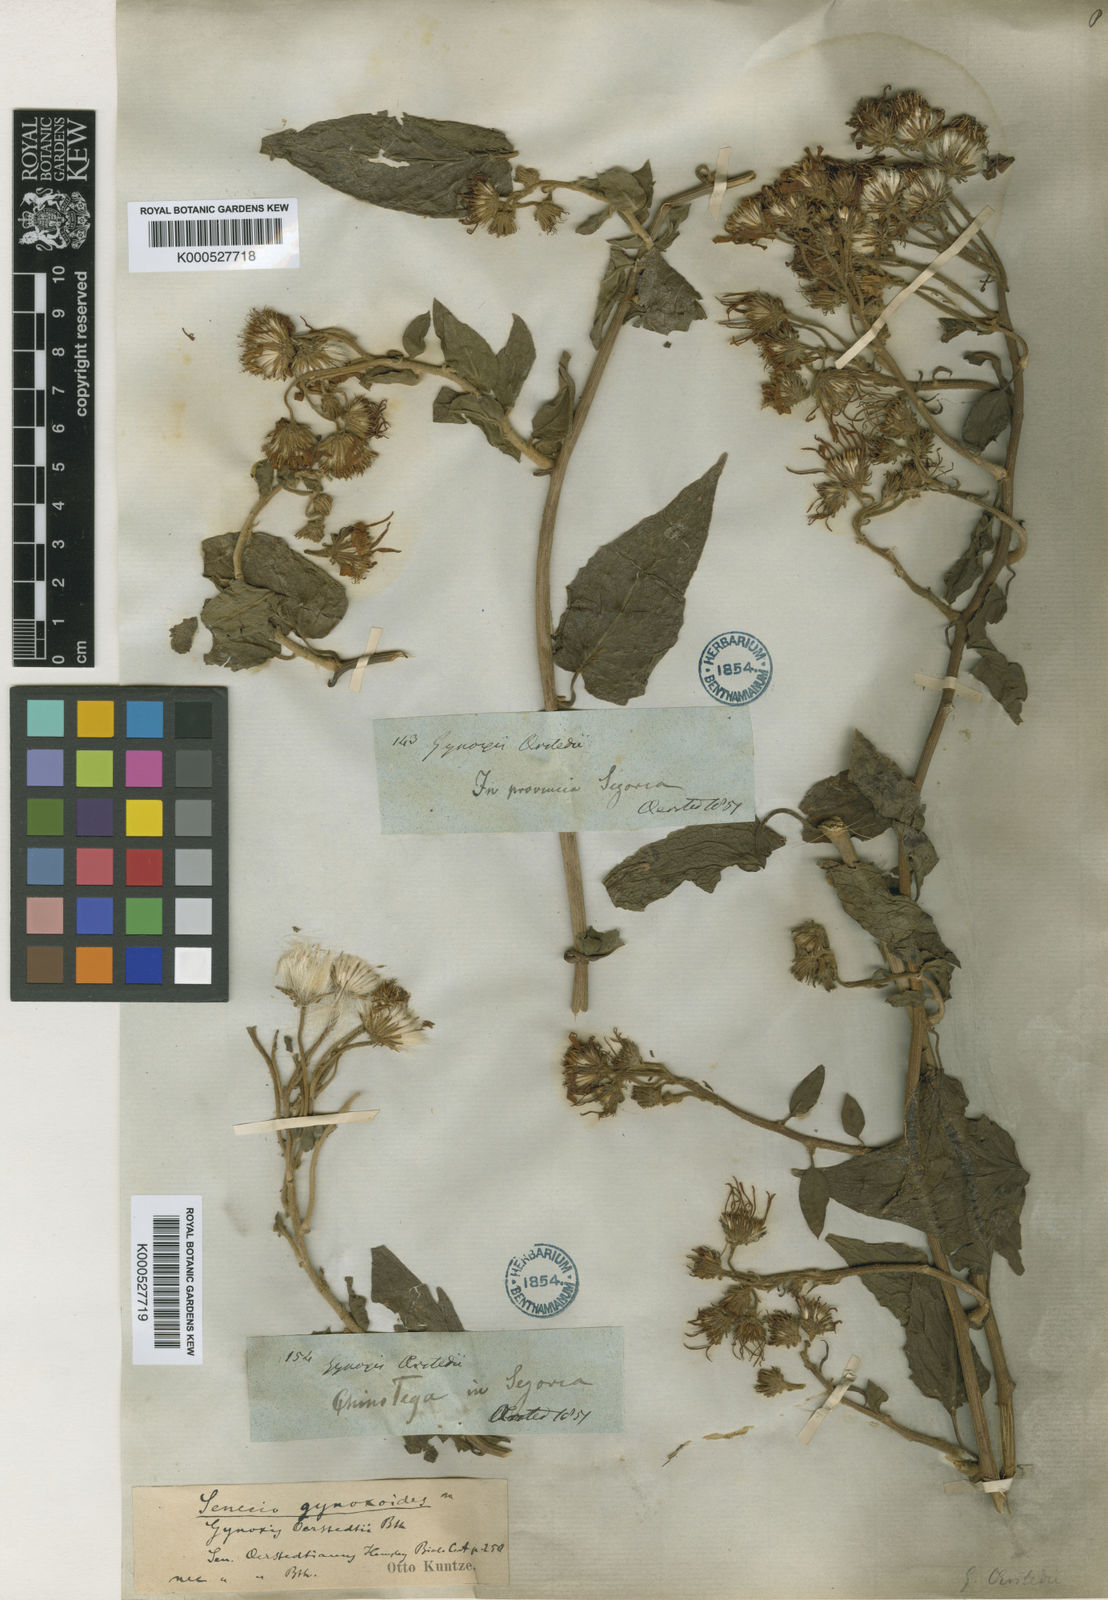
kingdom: Plantae
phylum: Tracheophyta
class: Magnoliopsida
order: Asterales
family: Asteraceae
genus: Pseudogynoxys
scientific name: Pseudogynoxys haenkei
